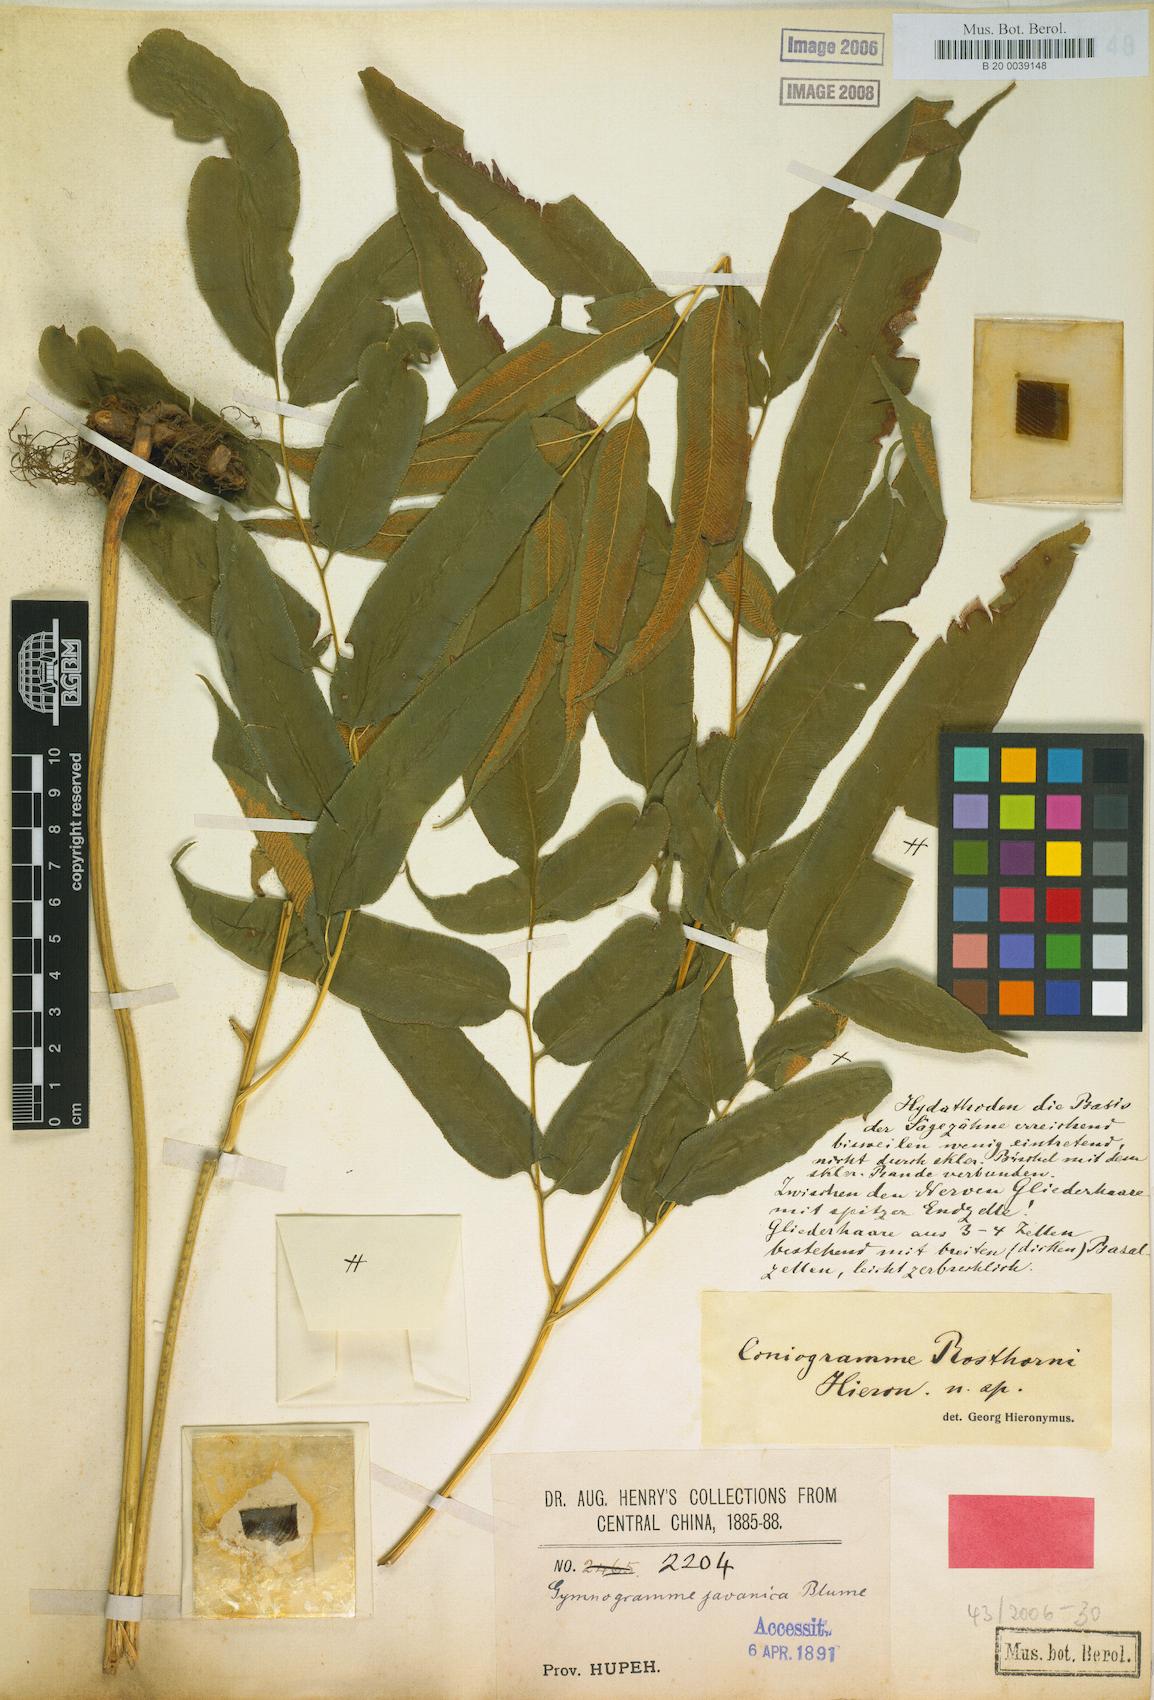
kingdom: Plantae
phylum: Tracheophyta
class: Polypodiopsida
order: Polypodiales
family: Pteridaceae
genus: Coniogramme
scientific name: Coniogramme rosthornii
